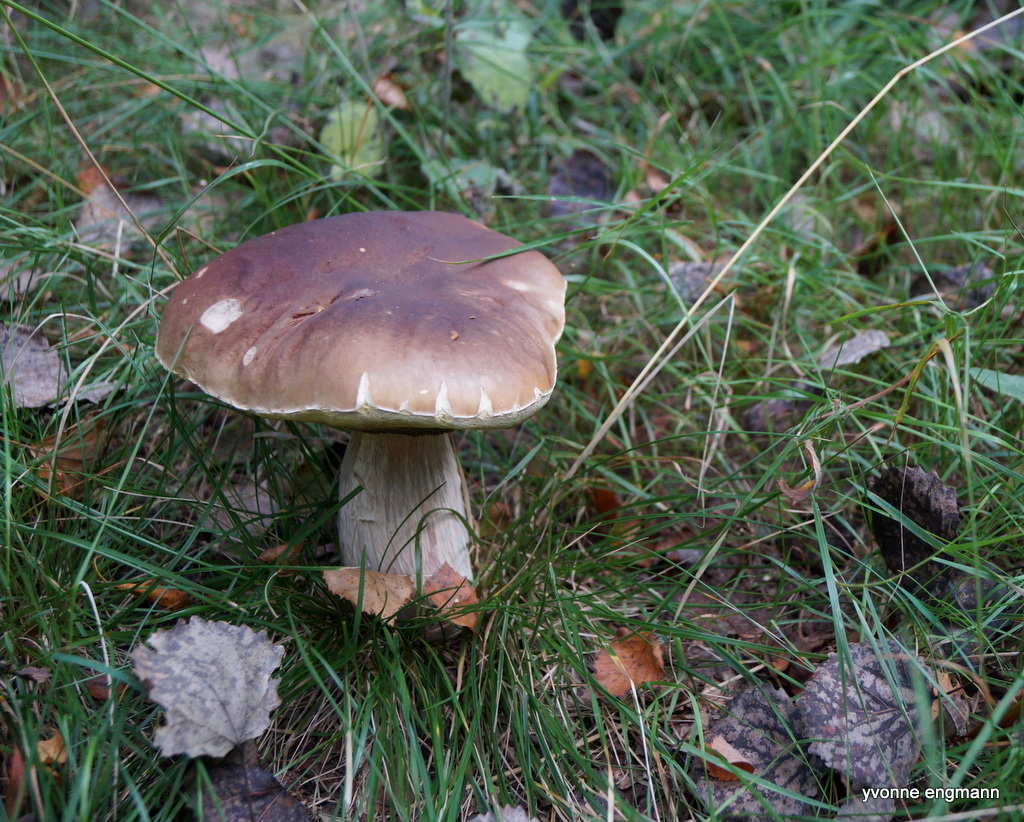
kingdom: Fungi
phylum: Basidiomycota
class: Agaricomycetes
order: Boletales
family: Boletaceae
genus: Boletus
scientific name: Boletus edulis
